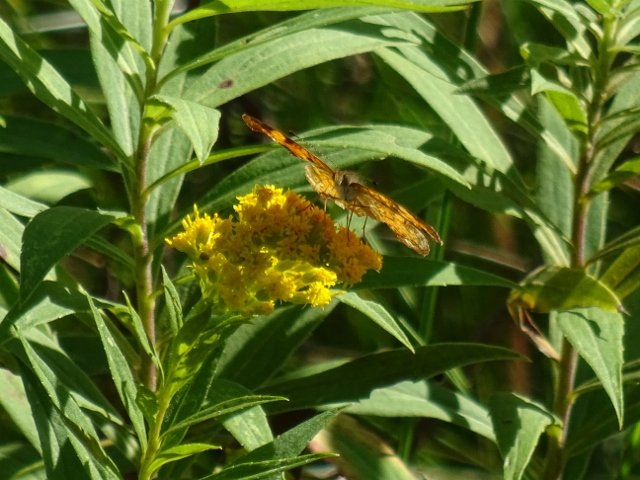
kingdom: Animalia
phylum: Arthropoda
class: Insecta
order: Lepidoptera
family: Nymphalidae
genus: Phyciodes
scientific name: Phyciodes tharos
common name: Pearl Crescent
